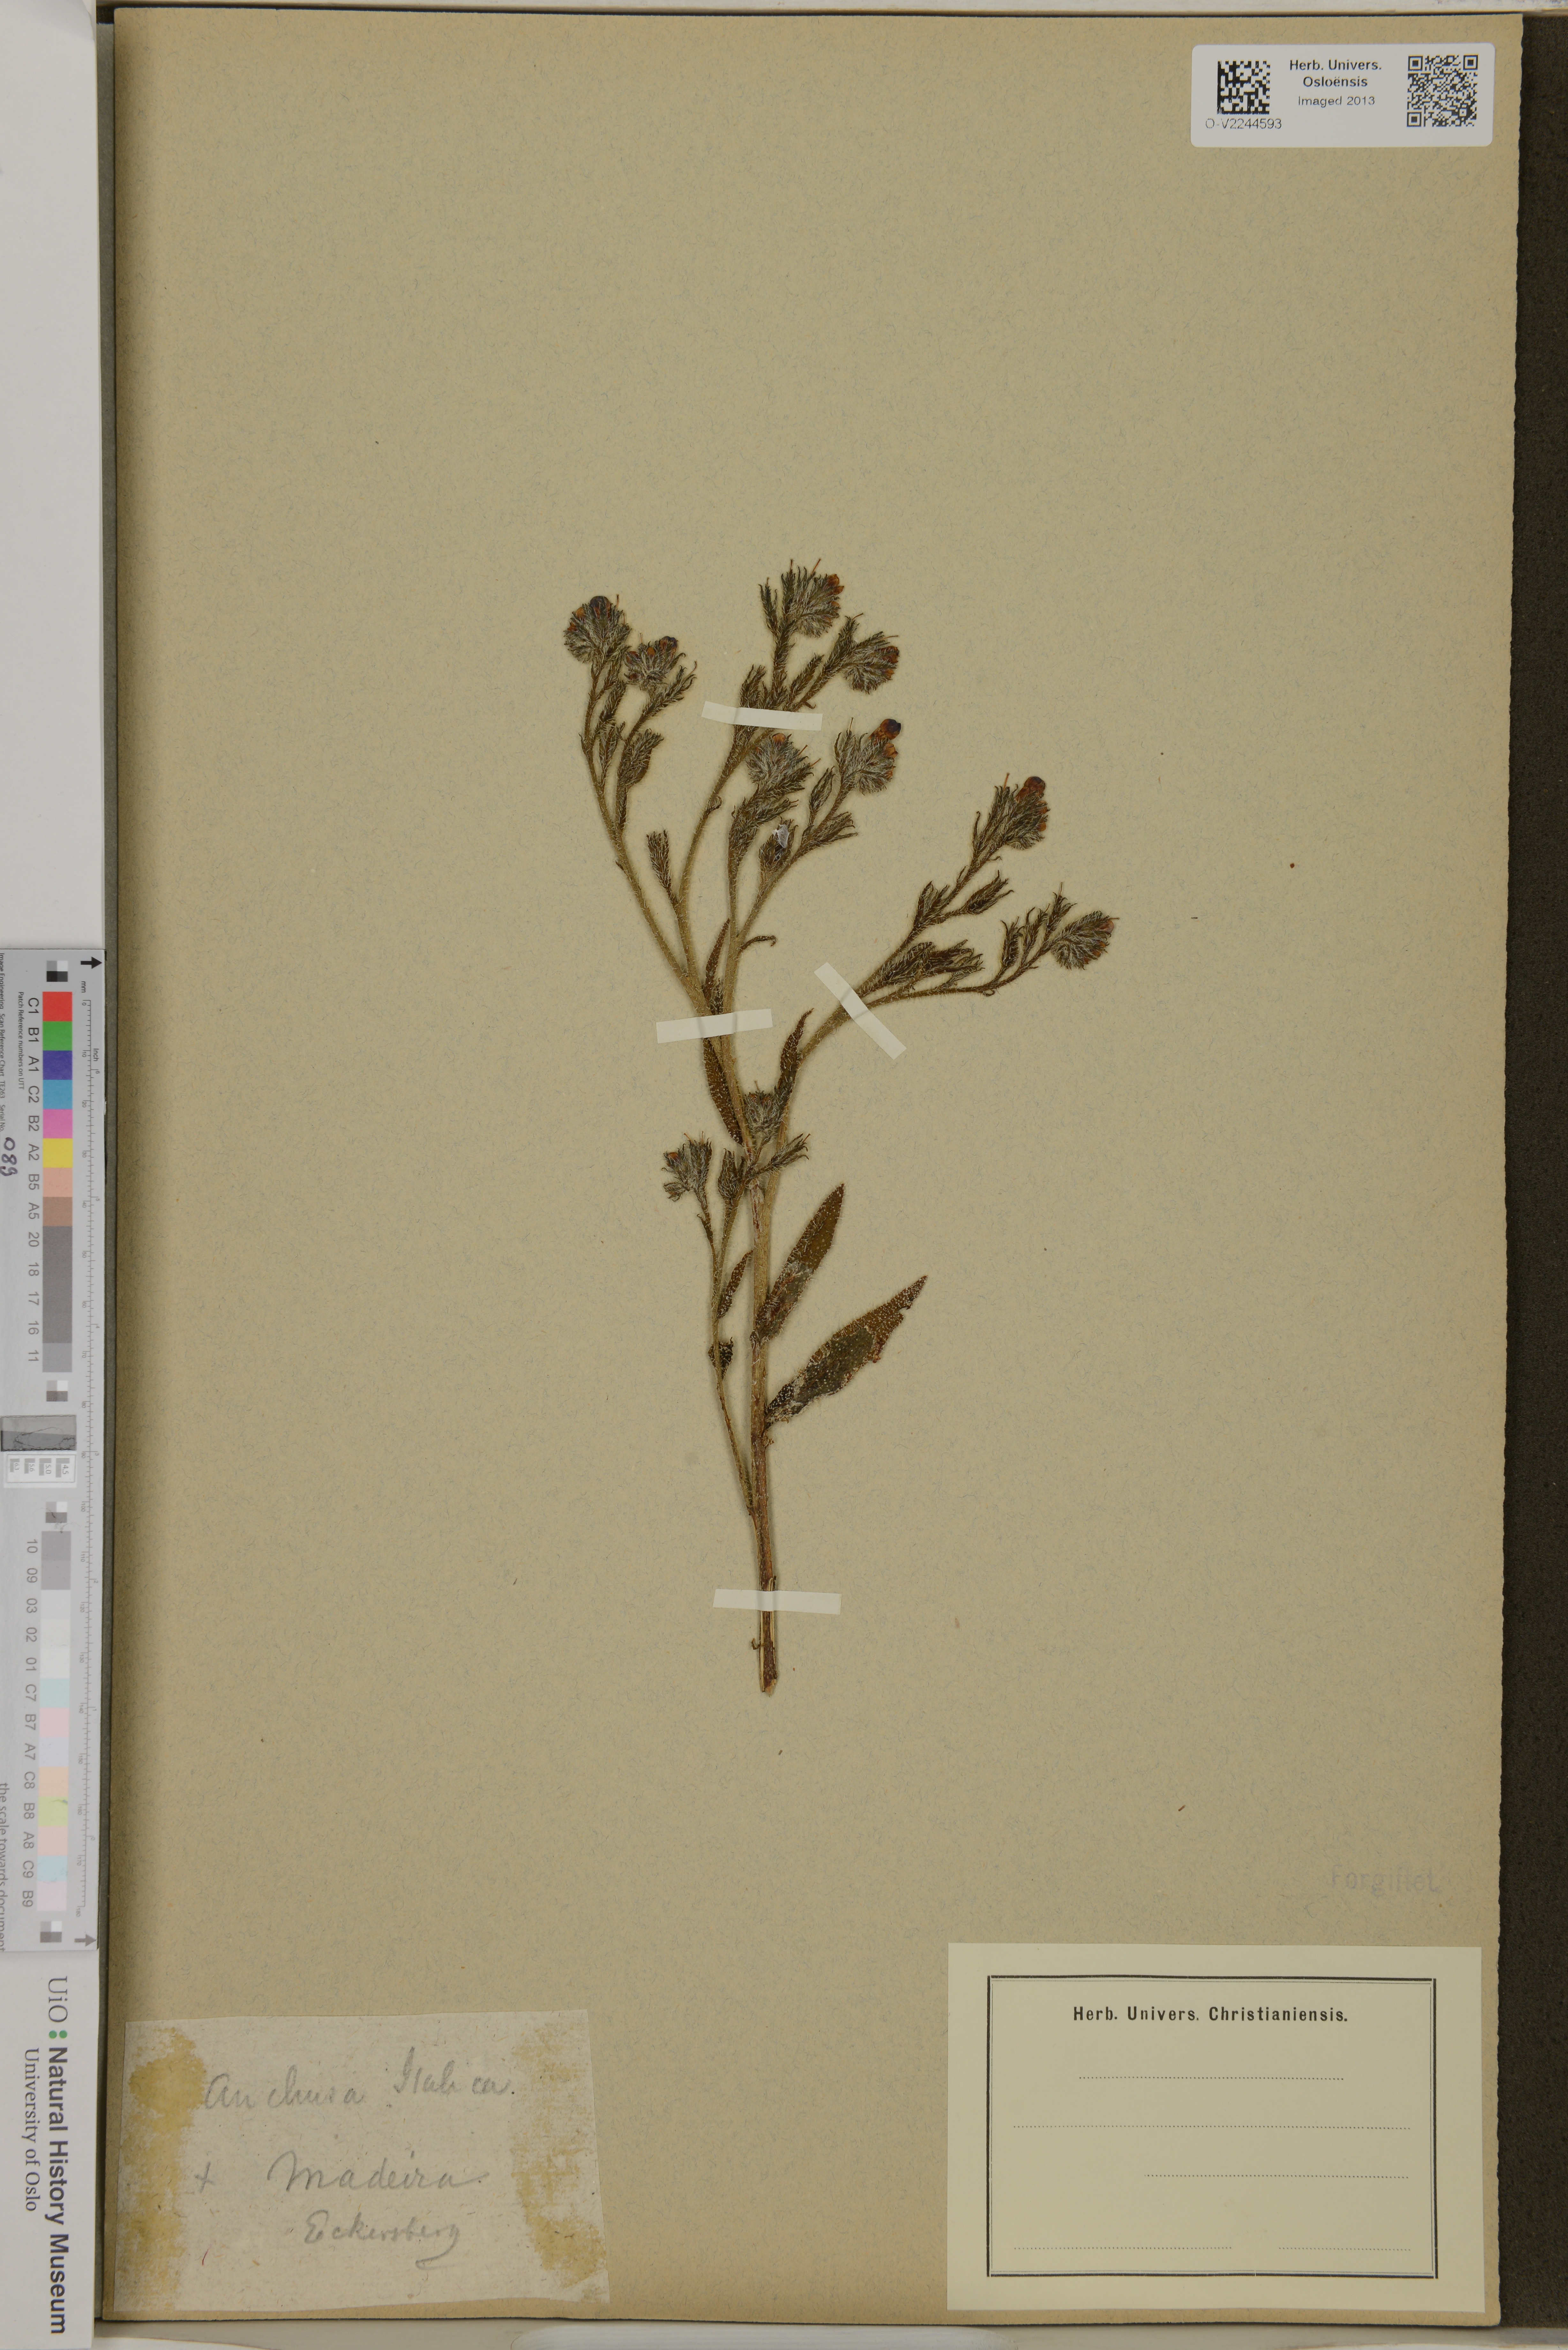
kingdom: Plantae
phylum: Tracheophyta
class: Magnoliopsida
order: Boraginales
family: Boraginaceae
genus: Anchusa
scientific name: Anchusa azurea
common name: Garden anchusa
